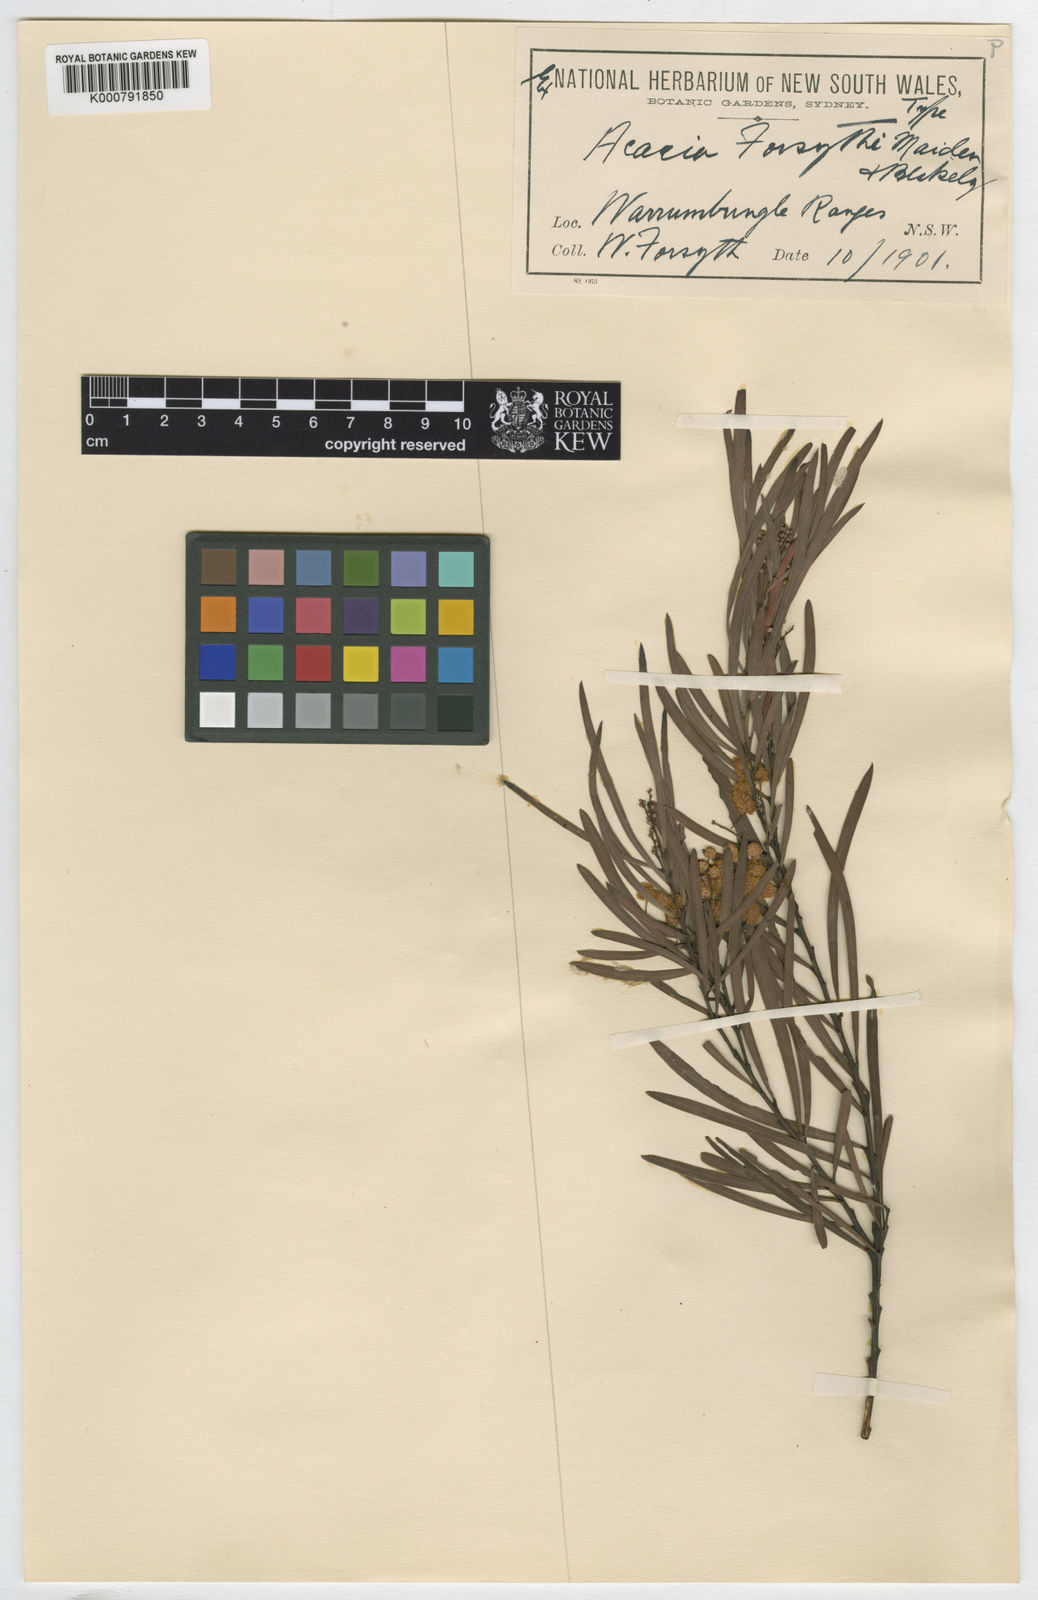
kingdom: Plantae
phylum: Tracheophyta
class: Magnoliopsida
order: Fabales
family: Fabaceae
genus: Acacia
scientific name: Acacia forsythii
